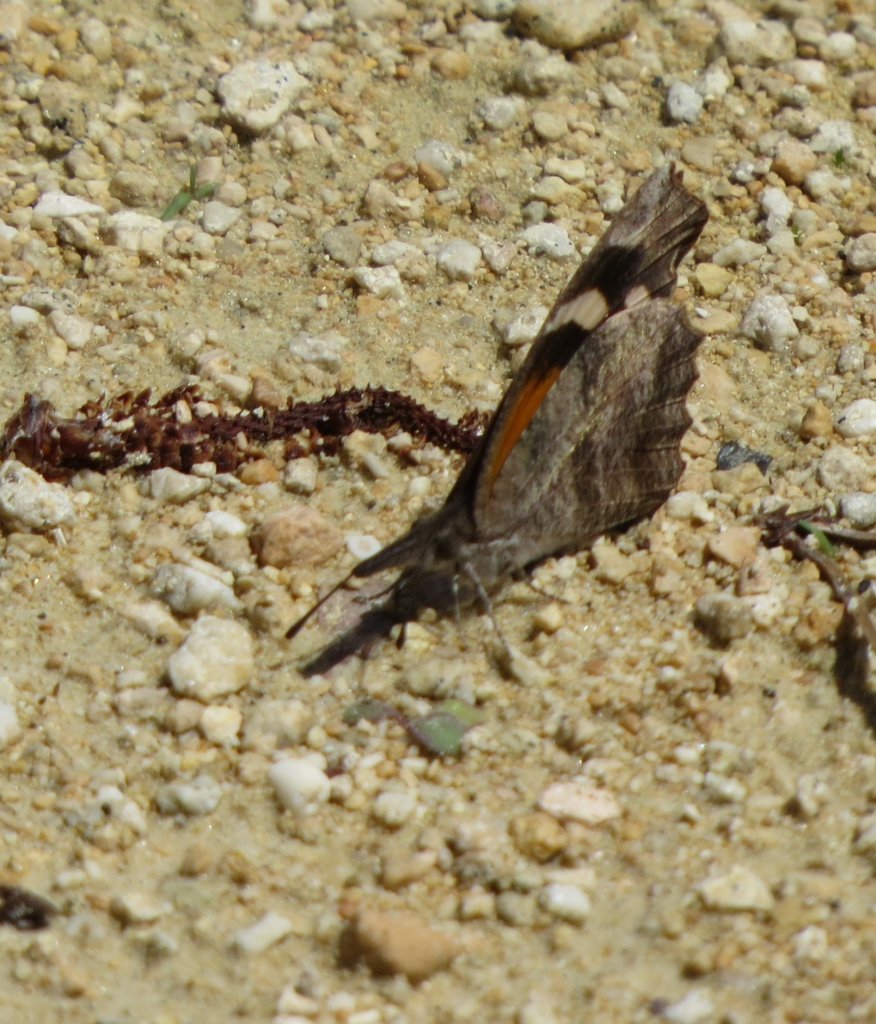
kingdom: Animalia
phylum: Arthropoda
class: Insecta
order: Lepidoptera
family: Nymphalidae
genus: Libytheana
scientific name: Libytheana carinenta
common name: American Snout
